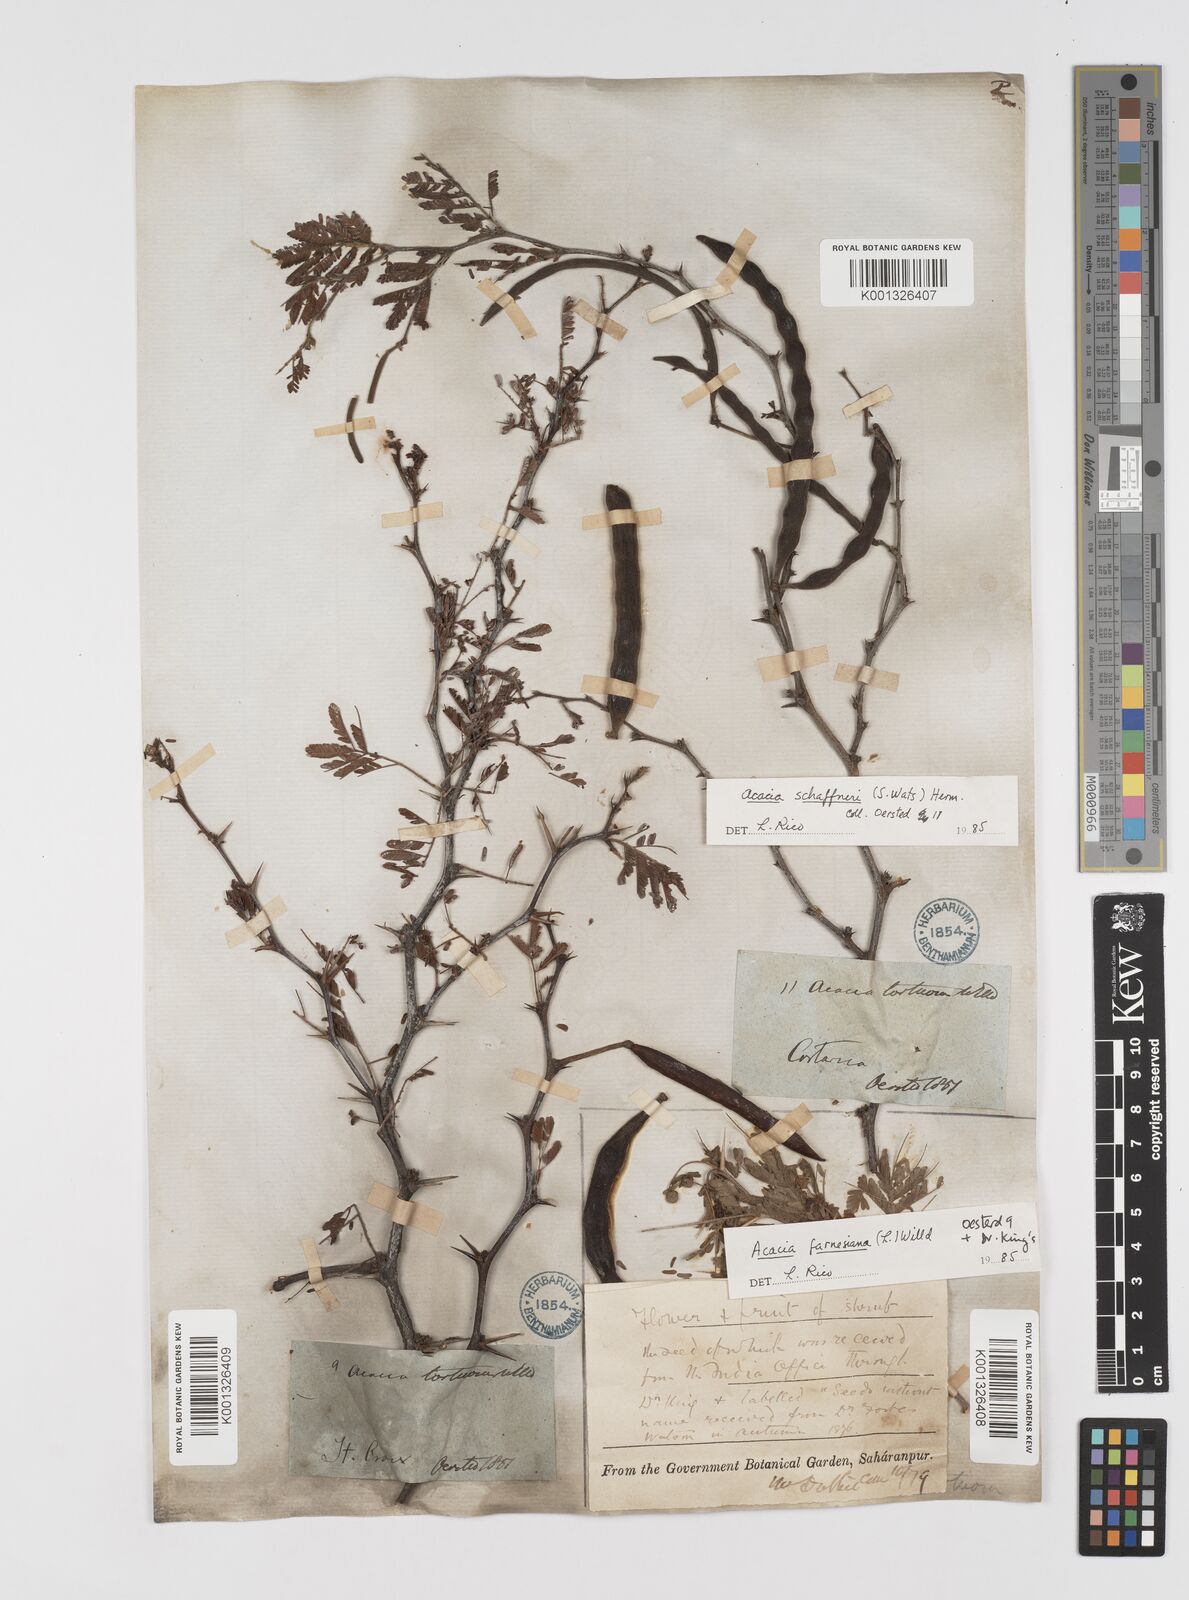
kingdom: Plantae
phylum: Tracheophyta
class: Magnoliopsida
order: Fabales
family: Fabaceae
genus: Vachellia
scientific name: Vachellia farnesiana
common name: Sweet acacia
